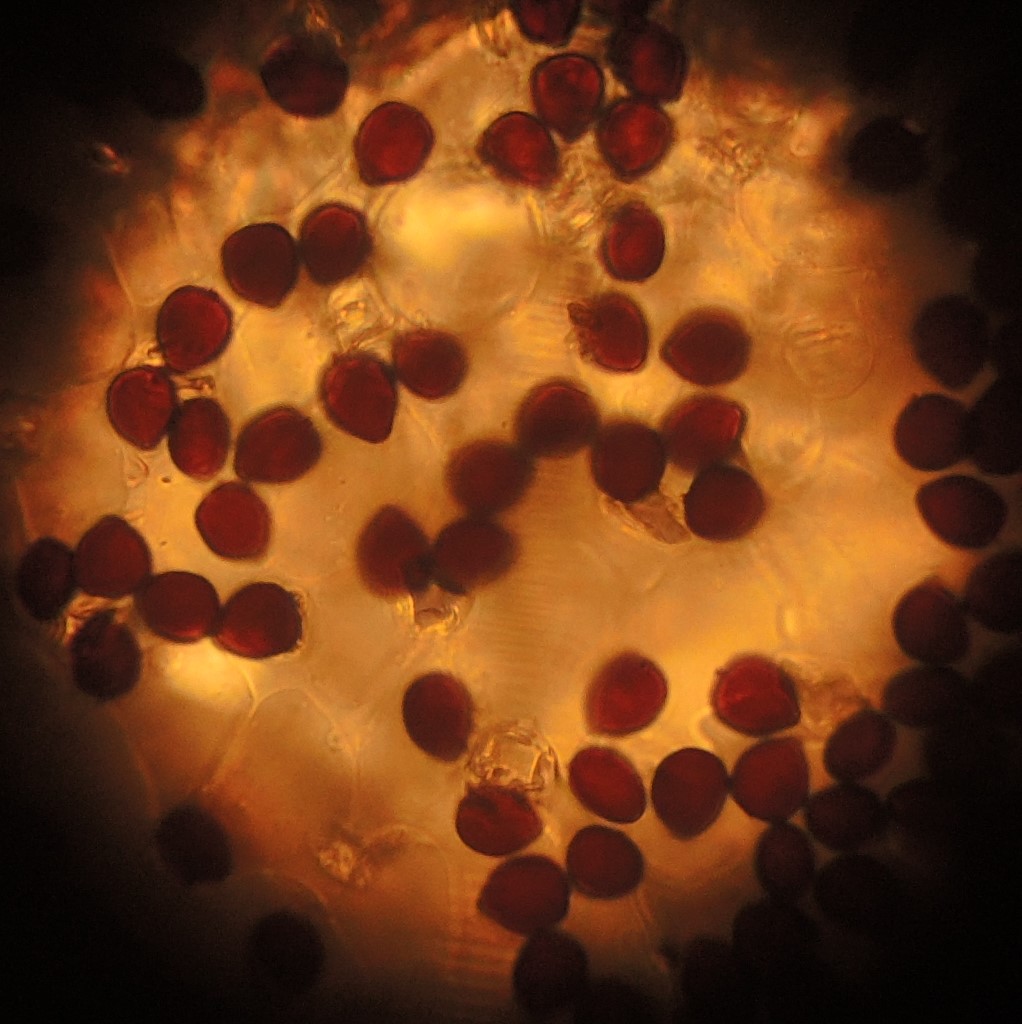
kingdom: Fungi
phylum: Basidiomycota
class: Agaricomycetes
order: Agaricales
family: Psathyrellaceae
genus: Narcissea
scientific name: Narcissea ephemeroides
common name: ring-blækhat
